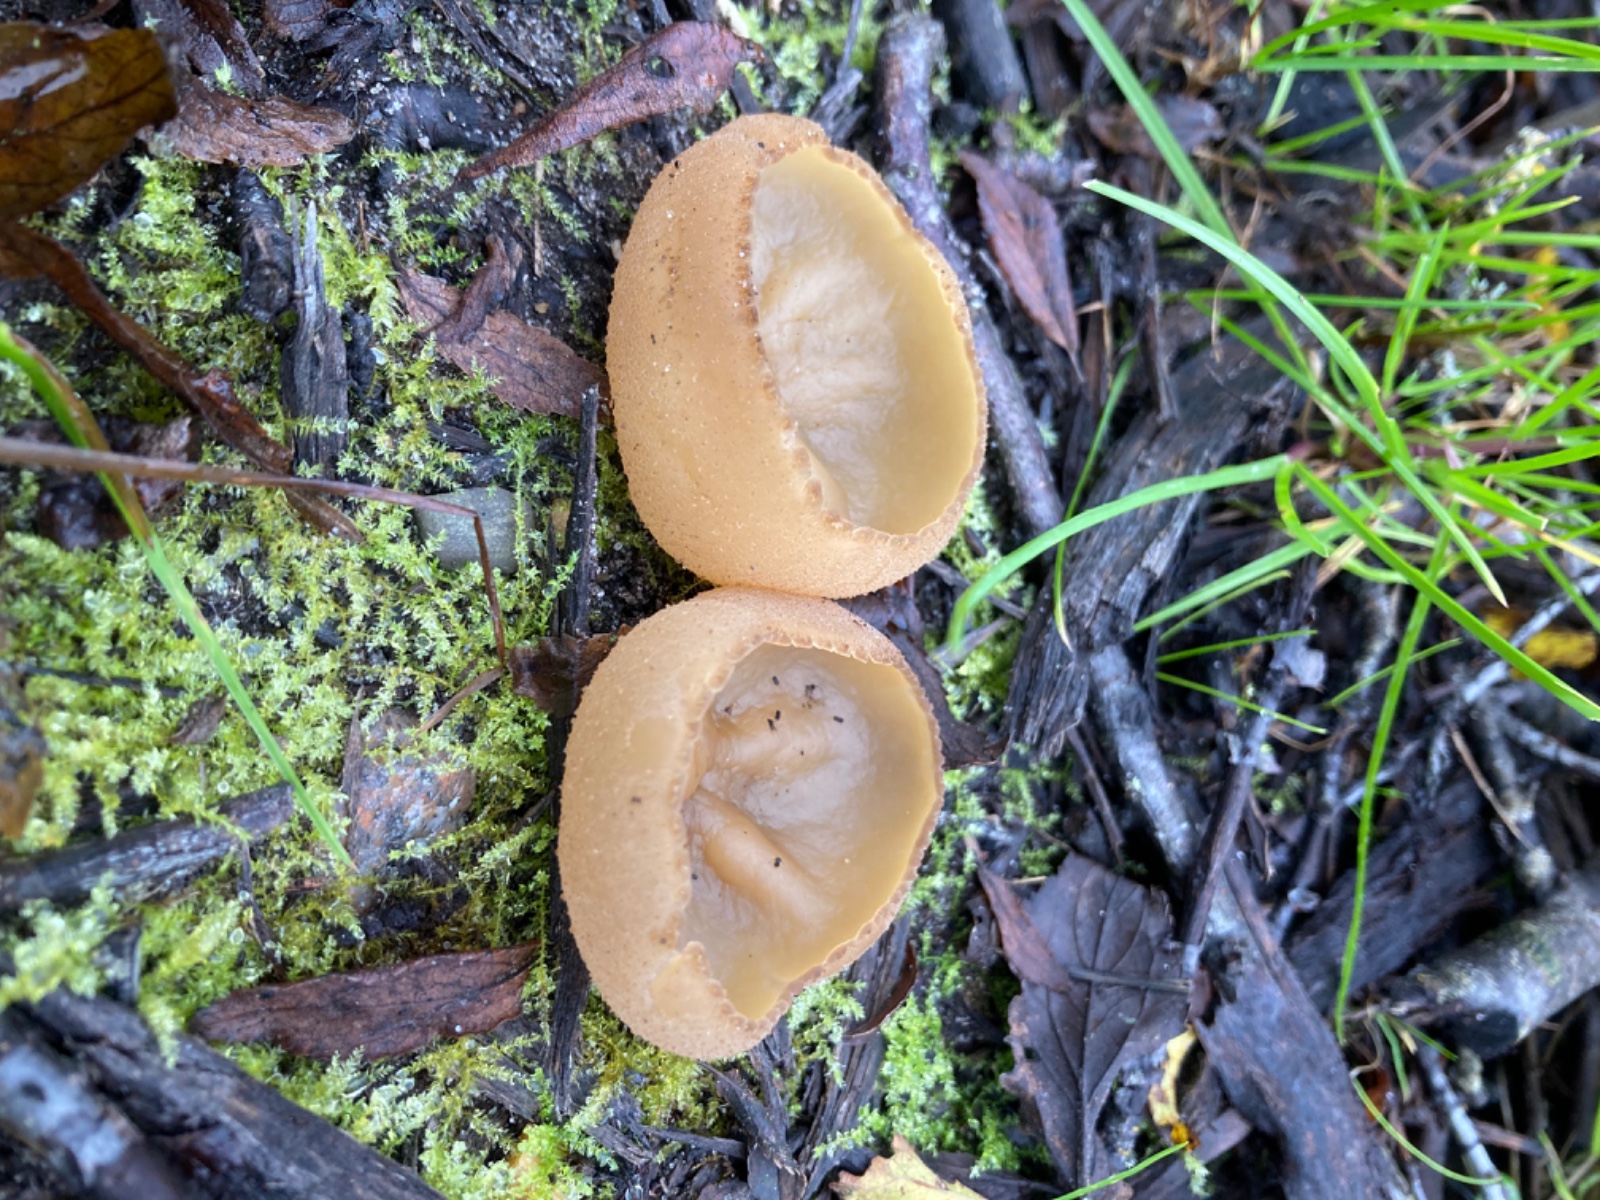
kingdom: Fungi
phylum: Ascomycota
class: Pezizomycetes
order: Pezizales
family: Pezizaceae
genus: Peziza
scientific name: Peziza
